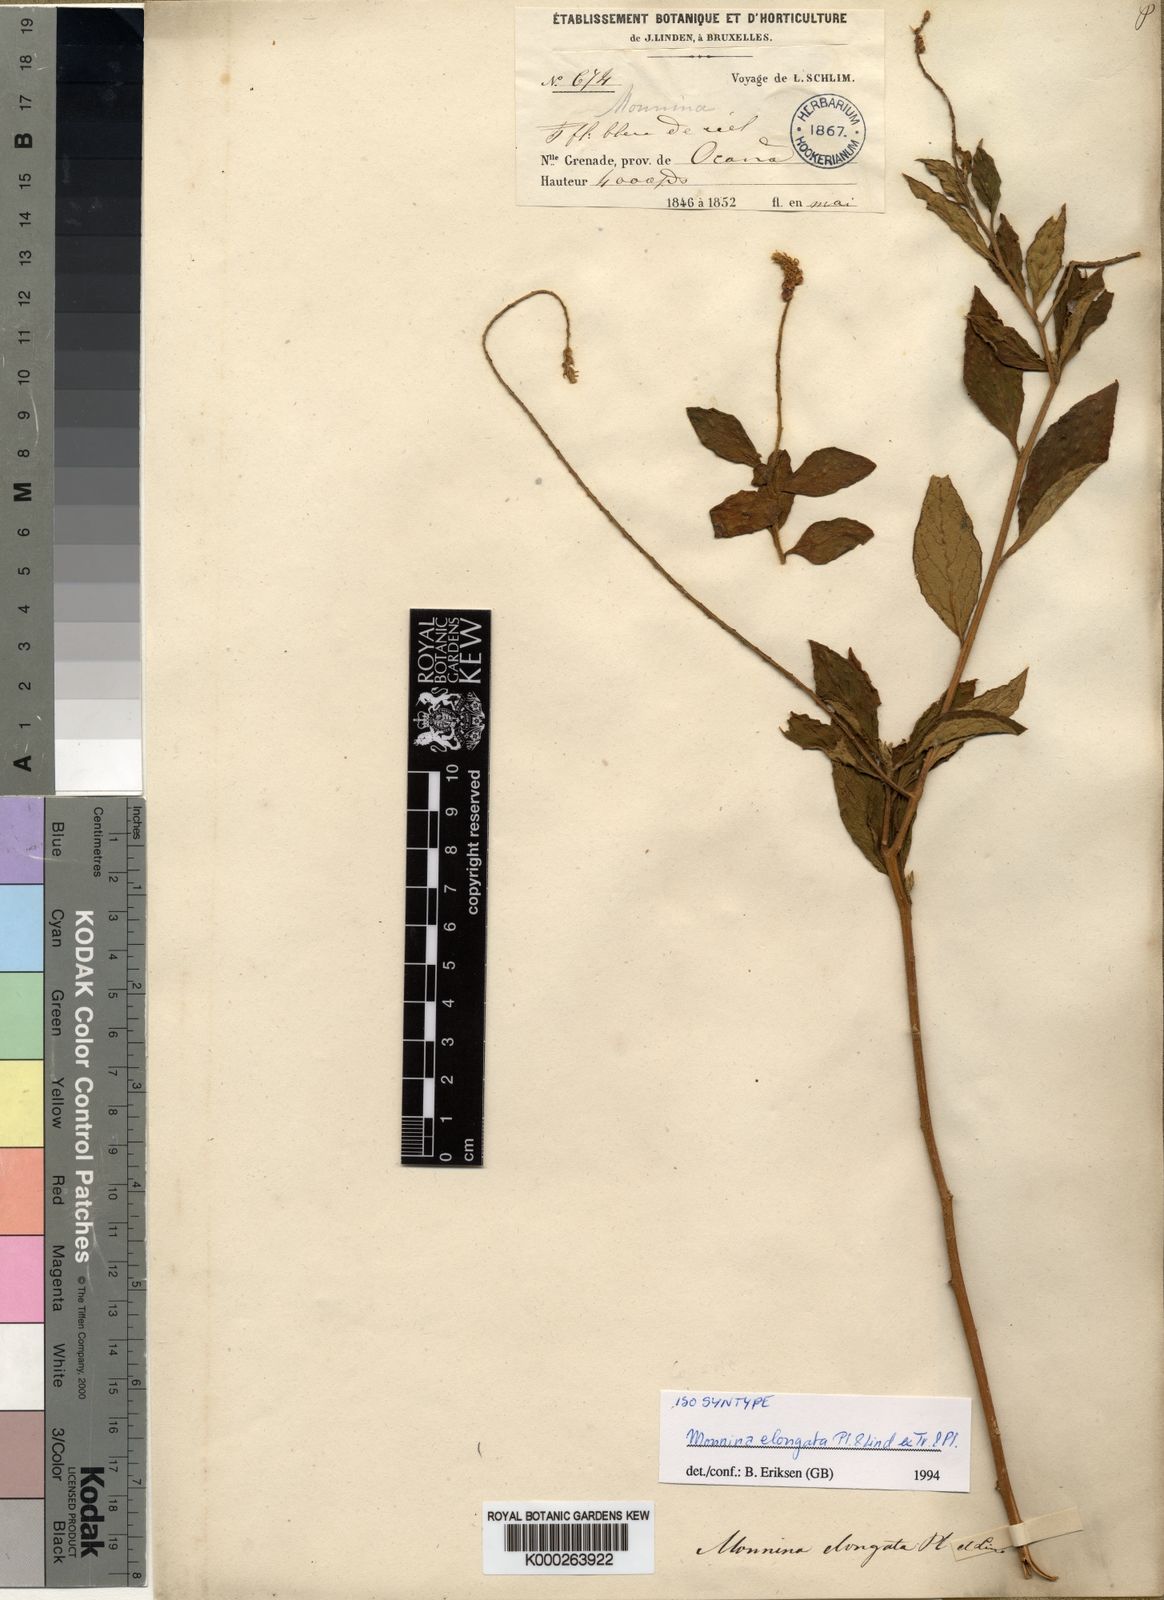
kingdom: Plantae
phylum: Tracheophyta
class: Magnoliopsida
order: Fabales
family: Polygalaceae
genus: Monnina
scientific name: Monnina elongata
